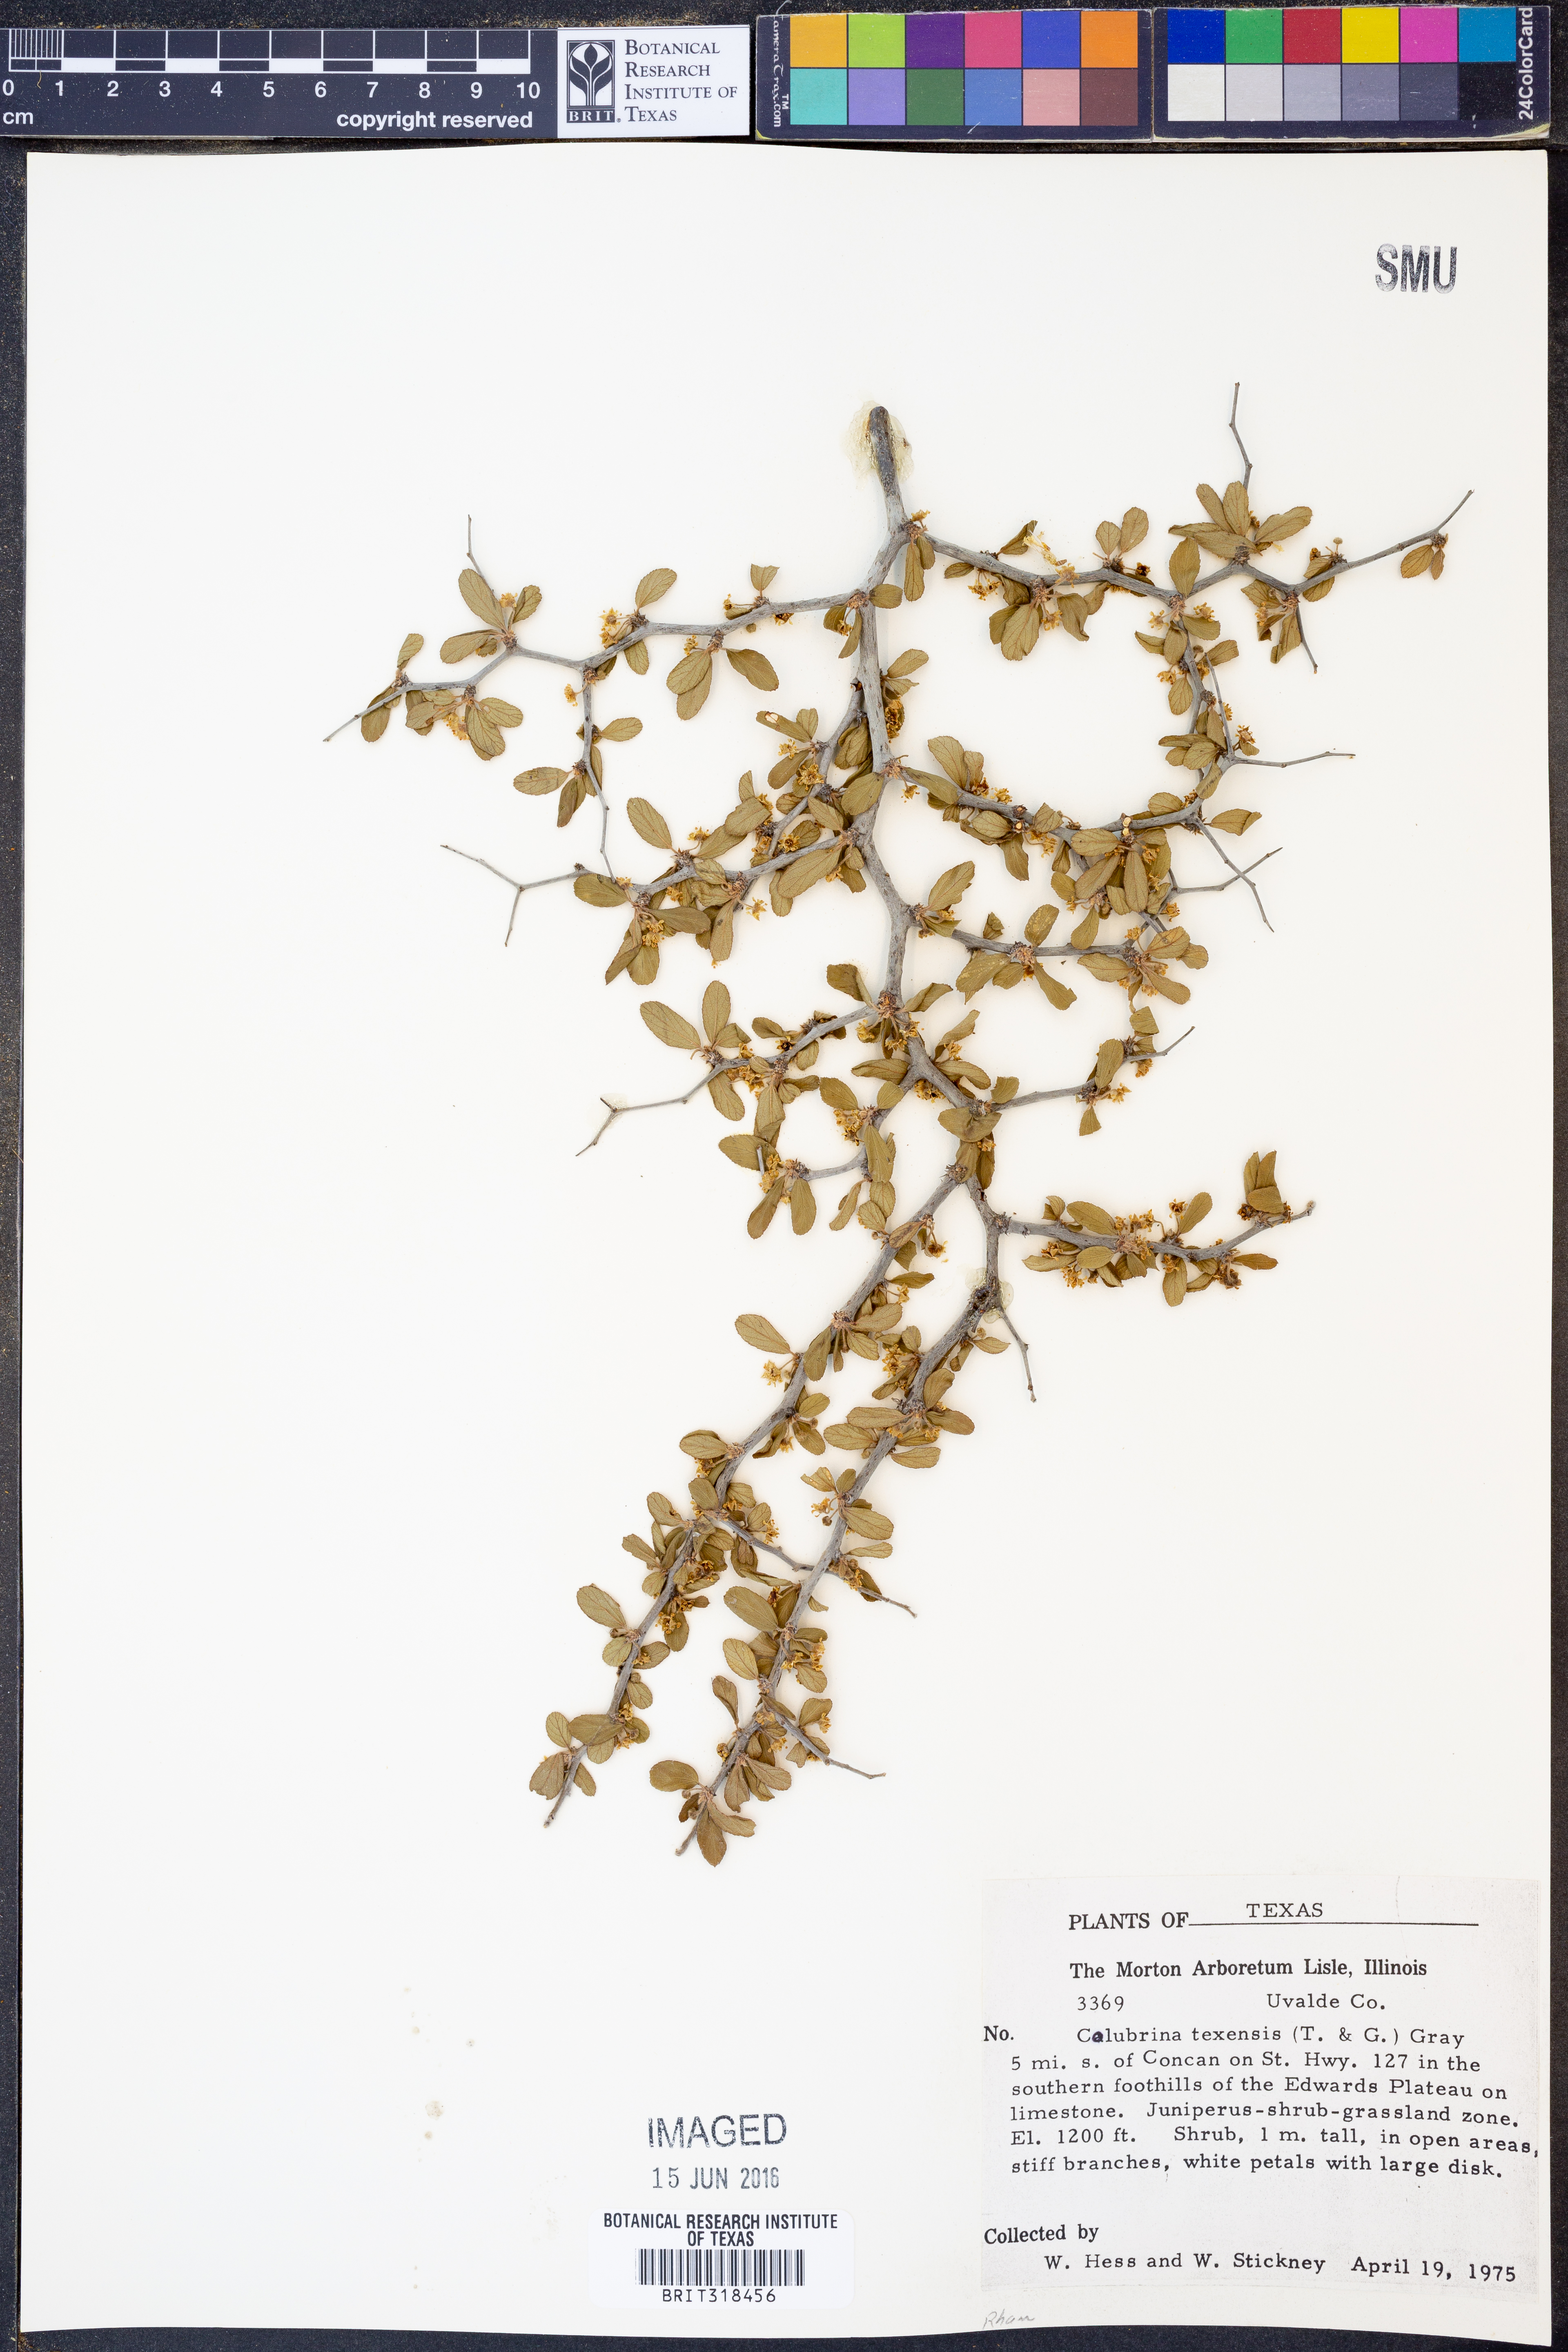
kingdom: Plantae
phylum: Tracheophyta
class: Magnoliopsida
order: Rosales
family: Rhamnaceae
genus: Colubrina
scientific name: Colubrina texensis
